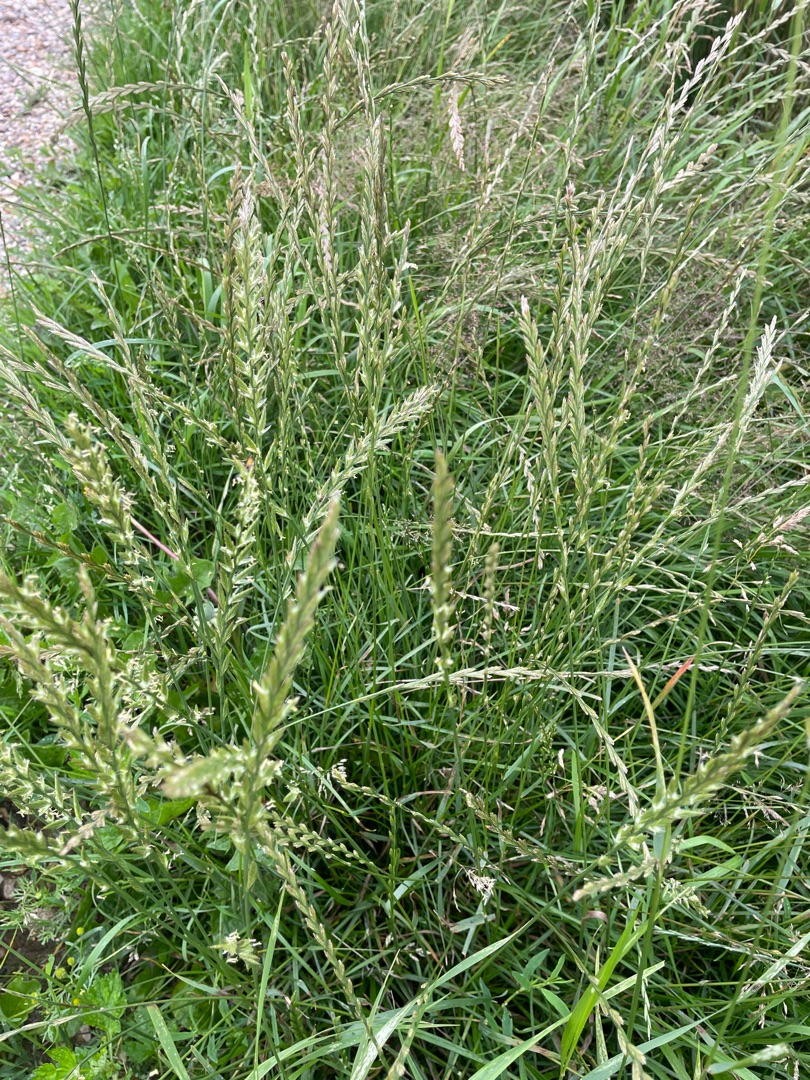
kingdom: Plantae
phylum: Tracheophyta
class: Liliopsida
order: Poales
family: Poaceae
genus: Lolium
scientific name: Lolium perenne
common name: Almindelig rajgræs
